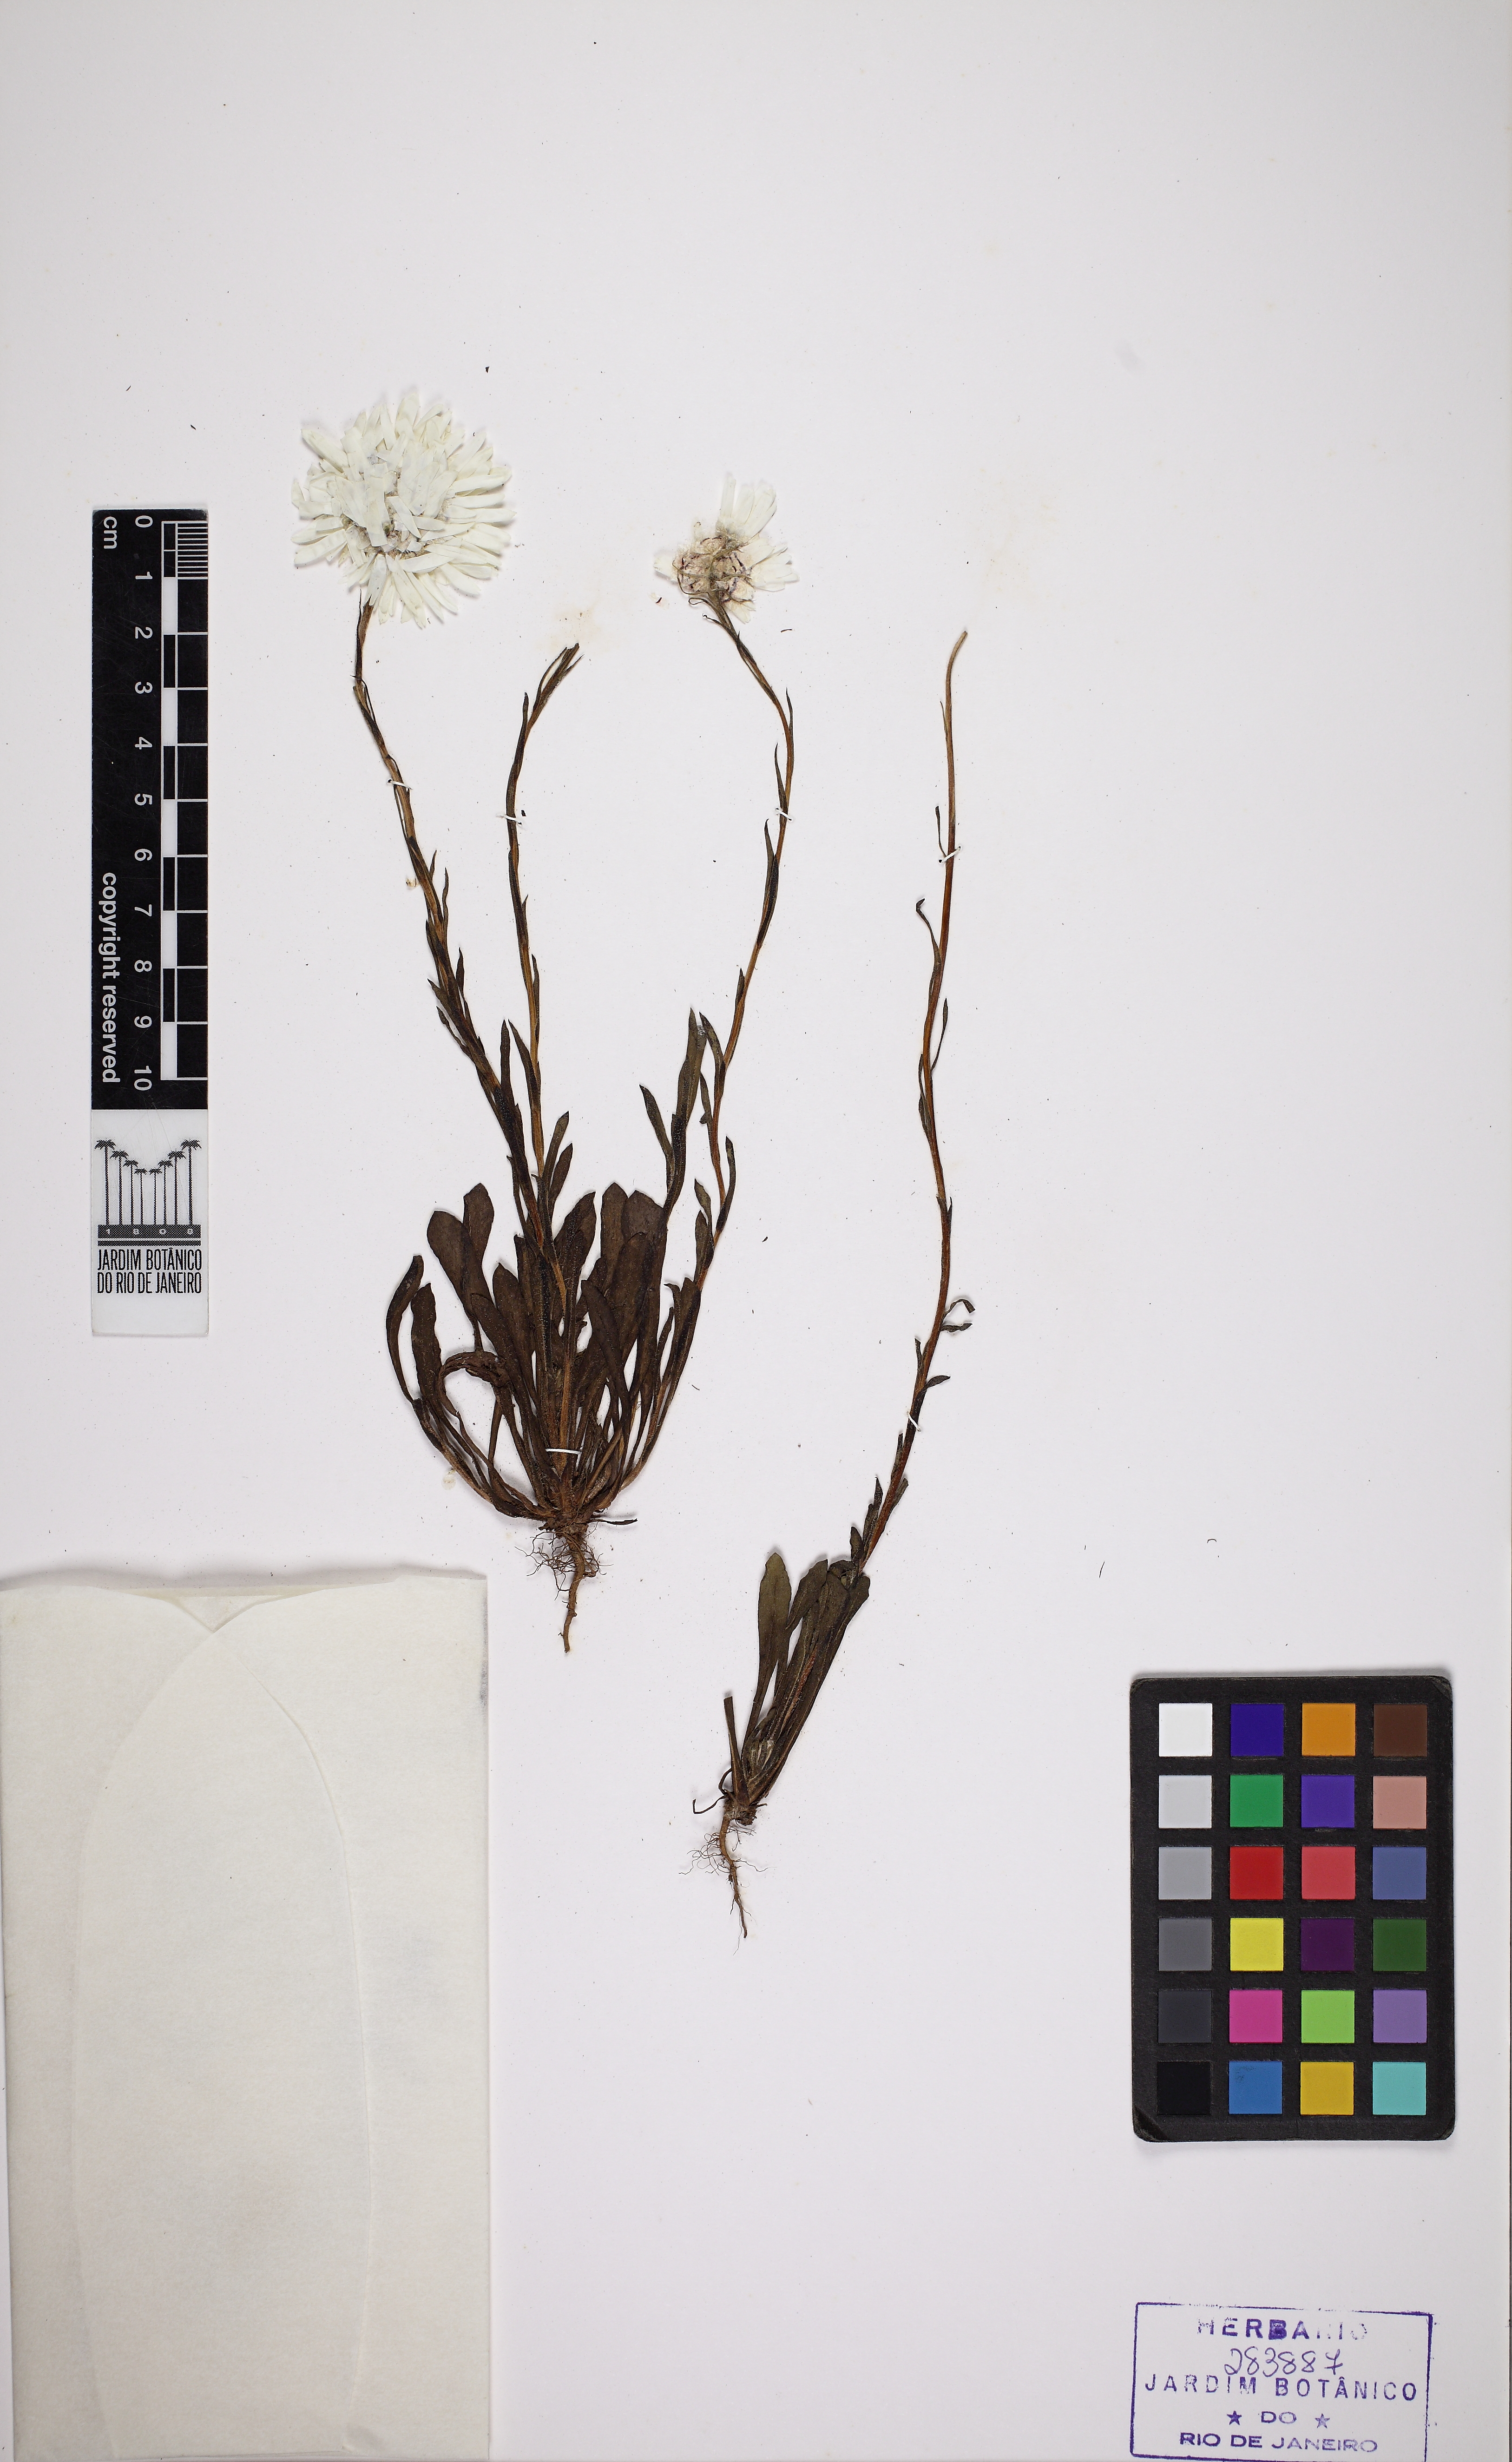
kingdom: Plantae
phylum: Tracheophyta
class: Magnoliopsida
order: Asterales
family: Asteraceae
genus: Cephalipterum
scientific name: Cephalipterum drummondii
